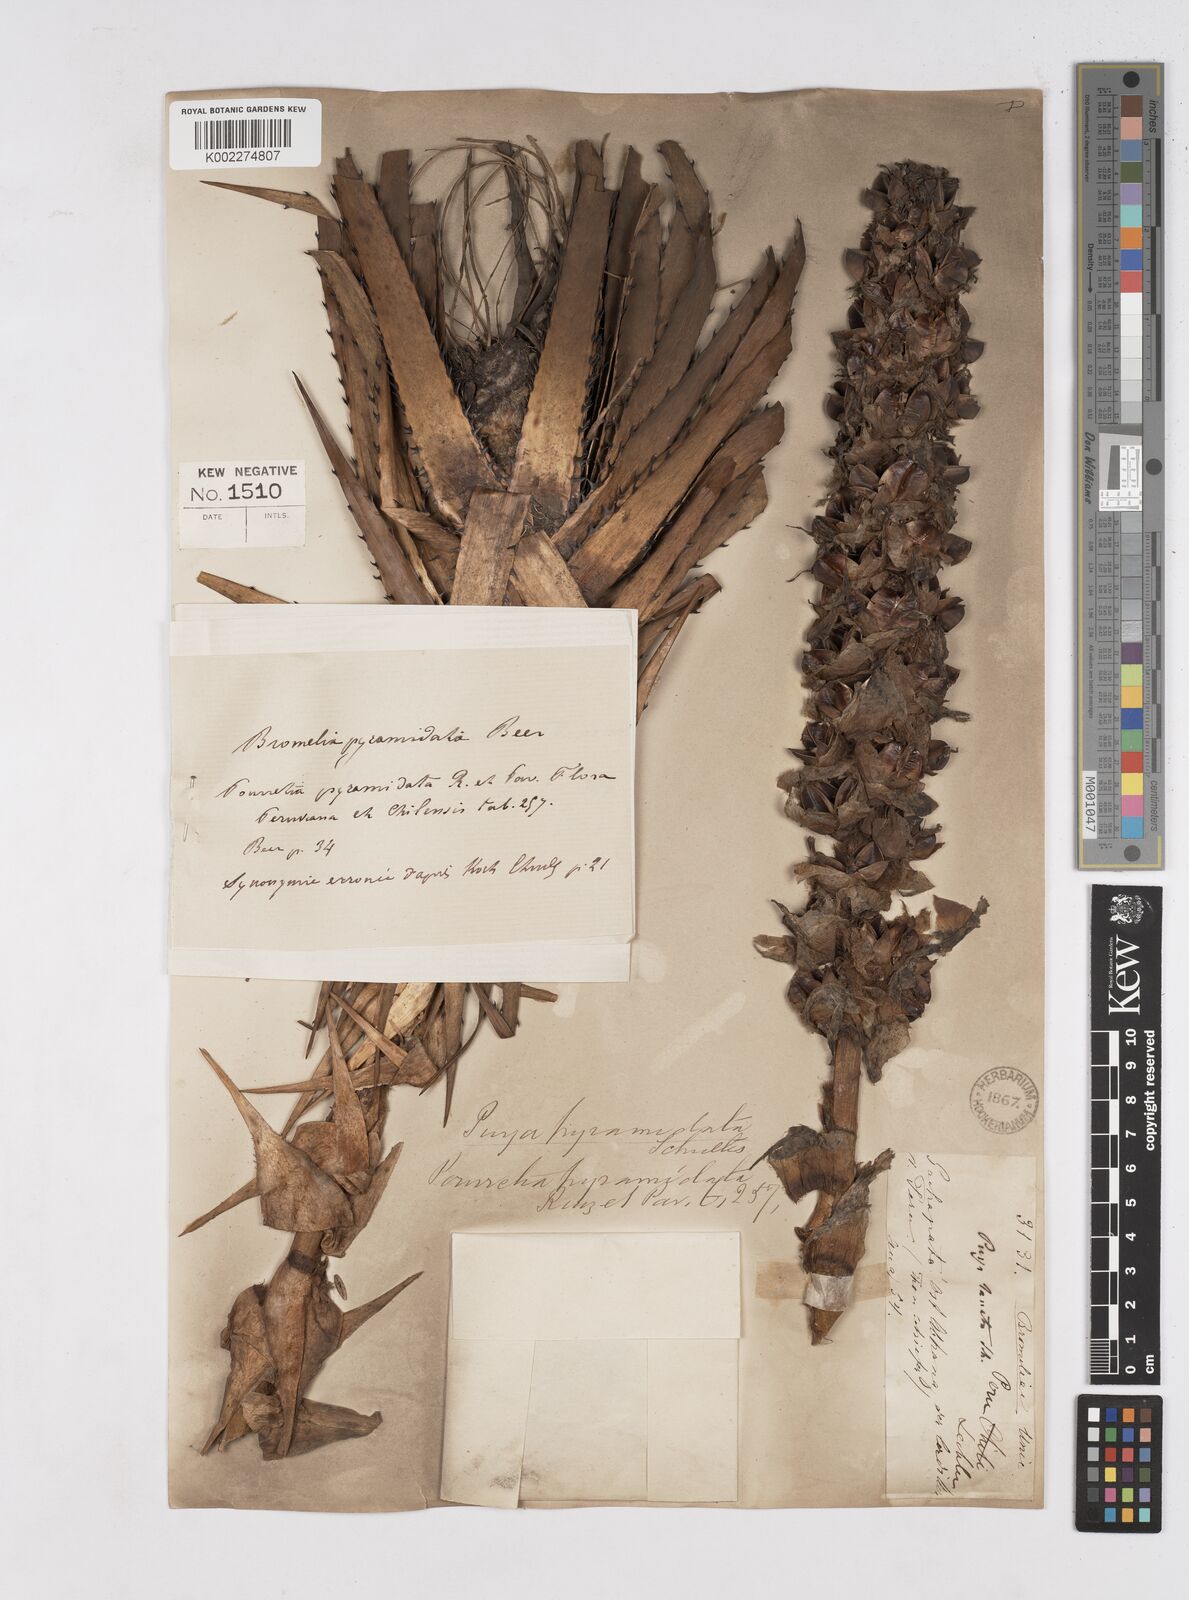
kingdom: Plantae
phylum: Tracheophyta
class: Liliopsida
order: Poales
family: Bromeliaceae
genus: Puya
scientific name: Puya pyramidata
